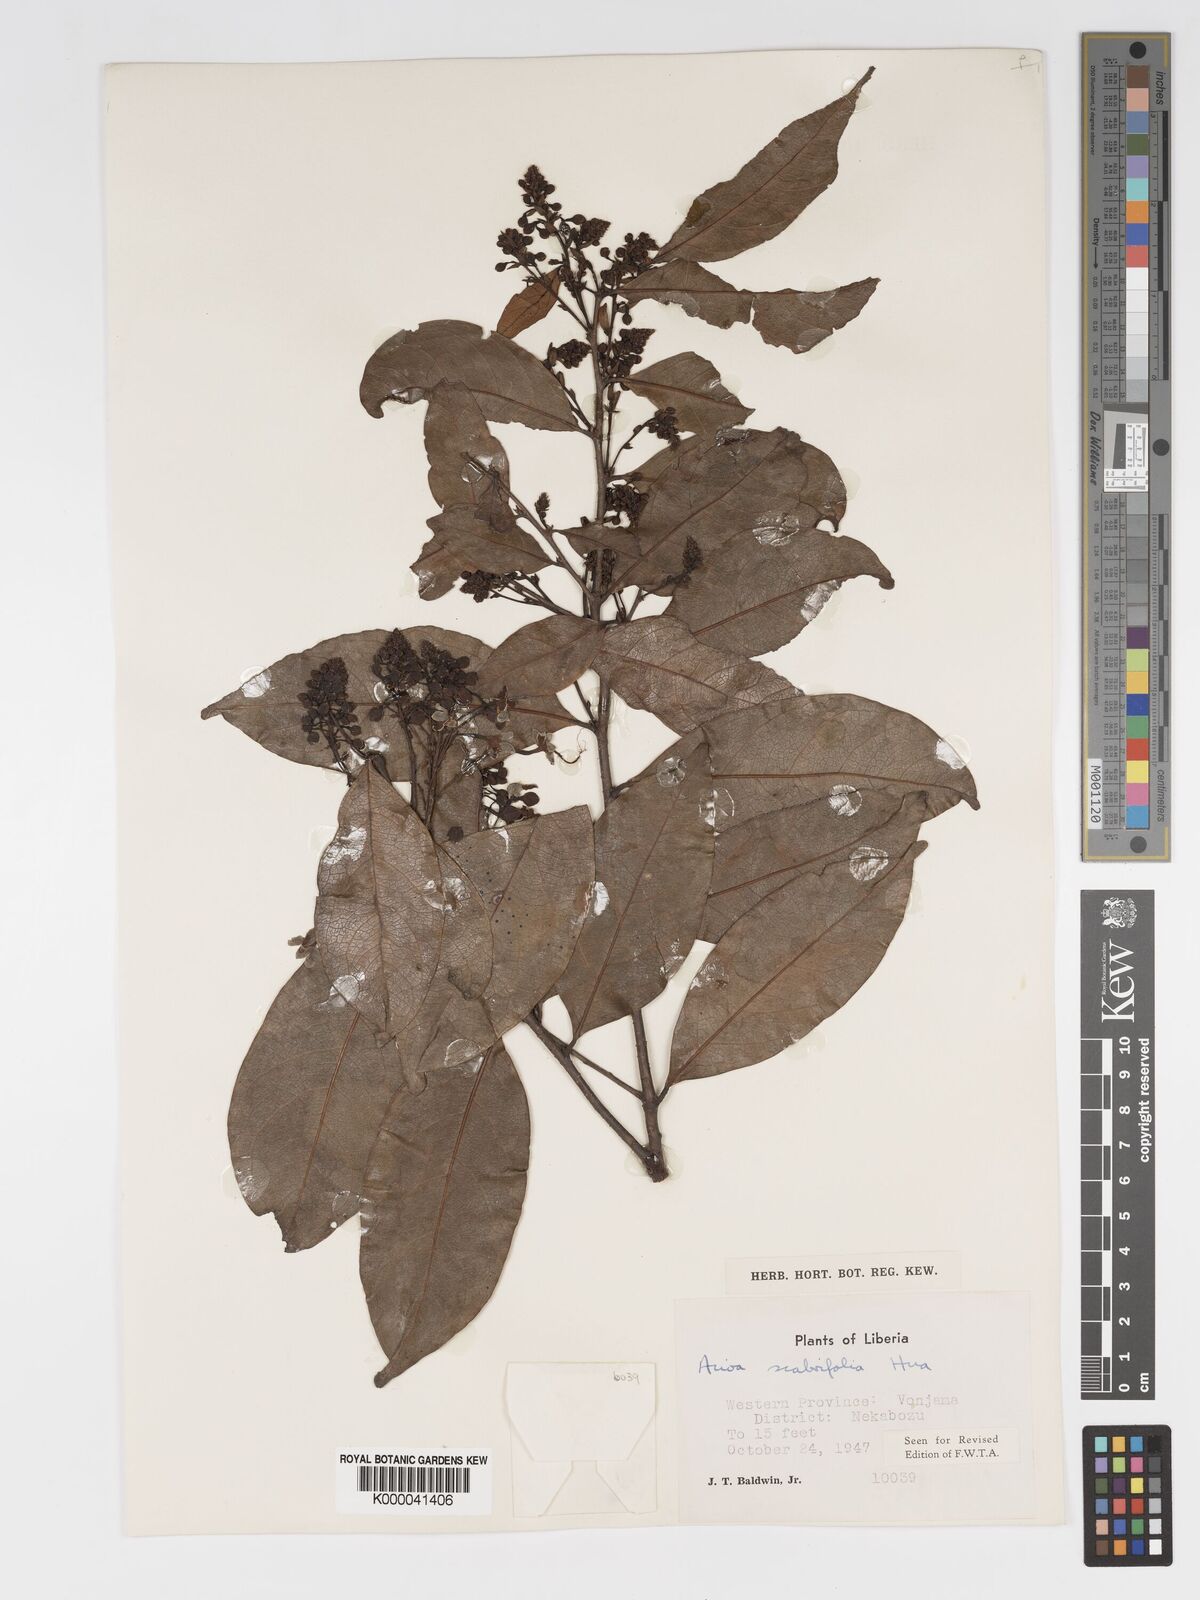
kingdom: Plantae
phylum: Tracheophyta
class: Magnoliopsida
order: Malpighiales
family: Chrysobalanaceae
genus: Dactyladenia
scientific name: Dactyladenia scabrifolia
